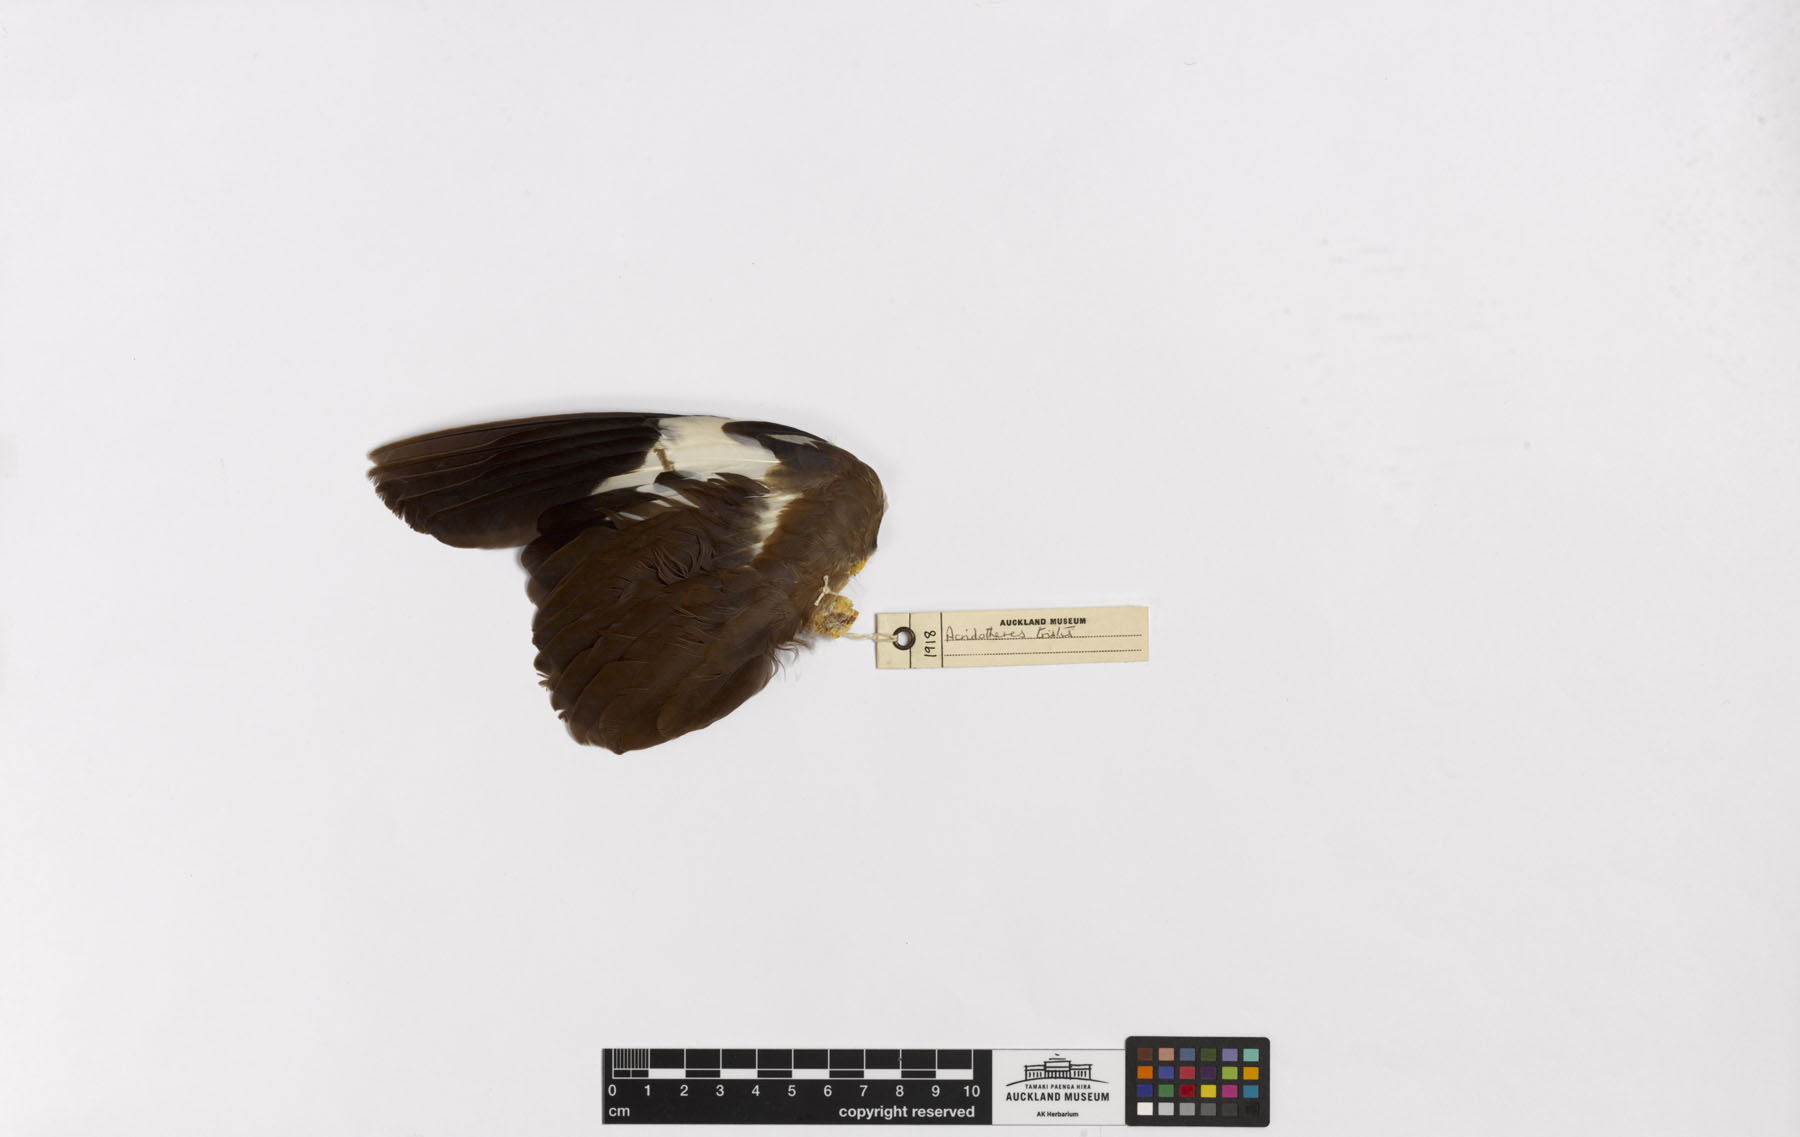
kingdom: Animalia
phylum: Chordata
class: Aves
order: Passeriformes
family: Sturnidae
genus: Acridotheres
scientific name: Acridotheres tristis
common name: Common myna
